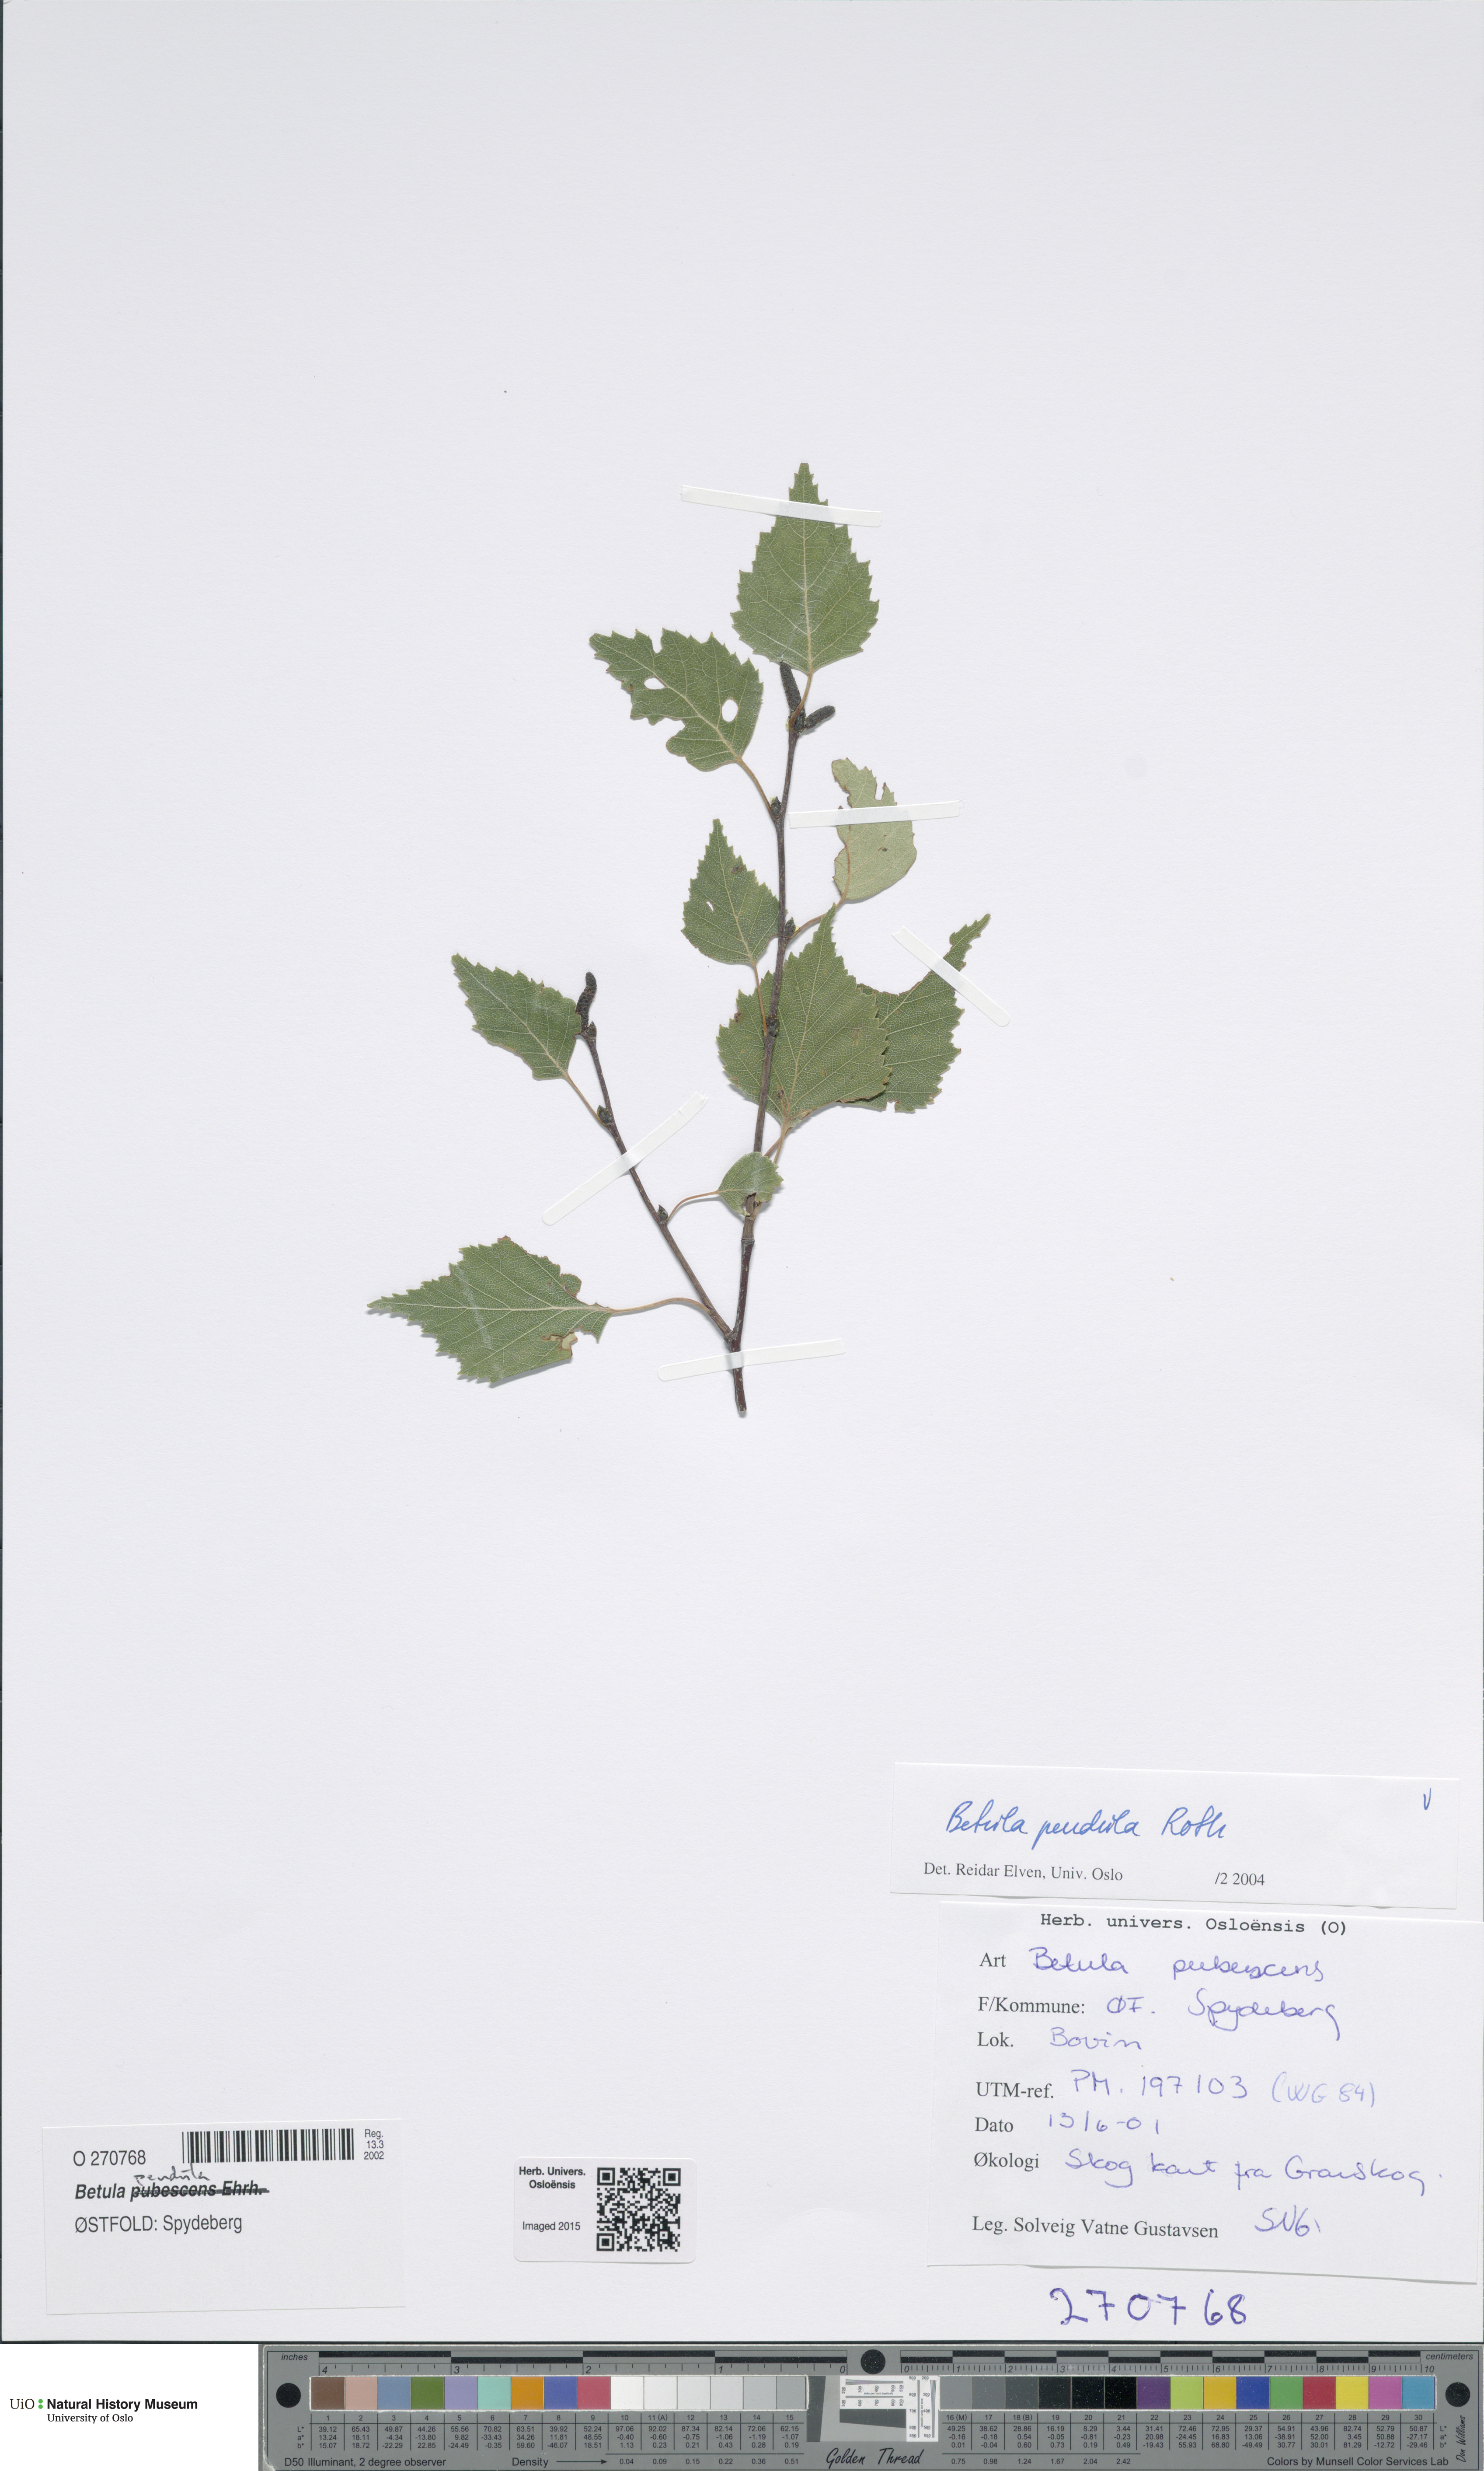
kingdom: Plantae
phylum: Tracheophyta
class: Magnoliopsida
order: Fagales
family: Betulaceae
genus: Betula
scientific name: Betula pendula
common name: Silver birch
